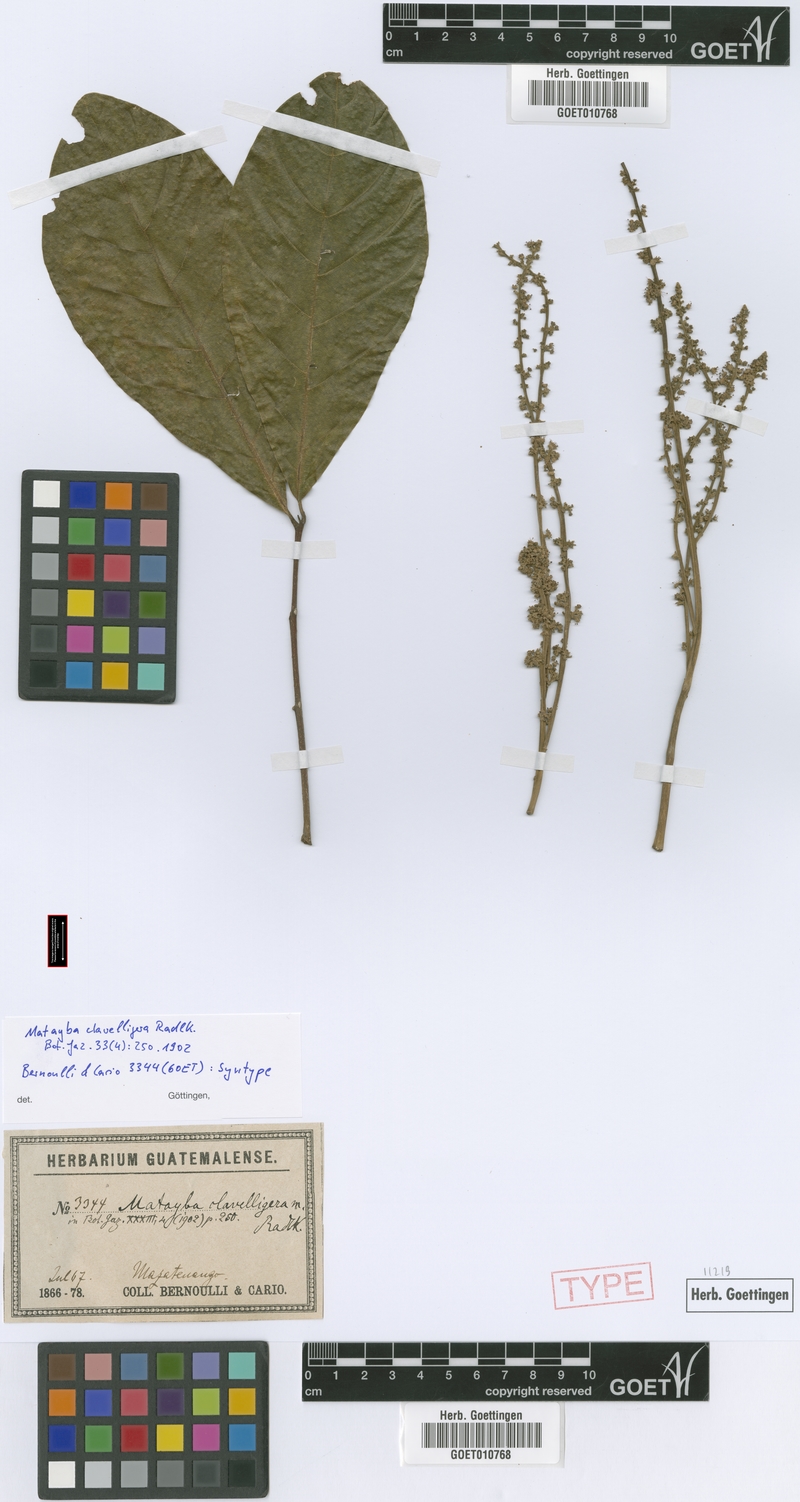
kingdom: Plantae
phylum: Tracheophyta
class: Magnoliopsida
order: Sapindales
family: Sapindaceae
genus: Matayba
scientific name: Matayba clavelligera
